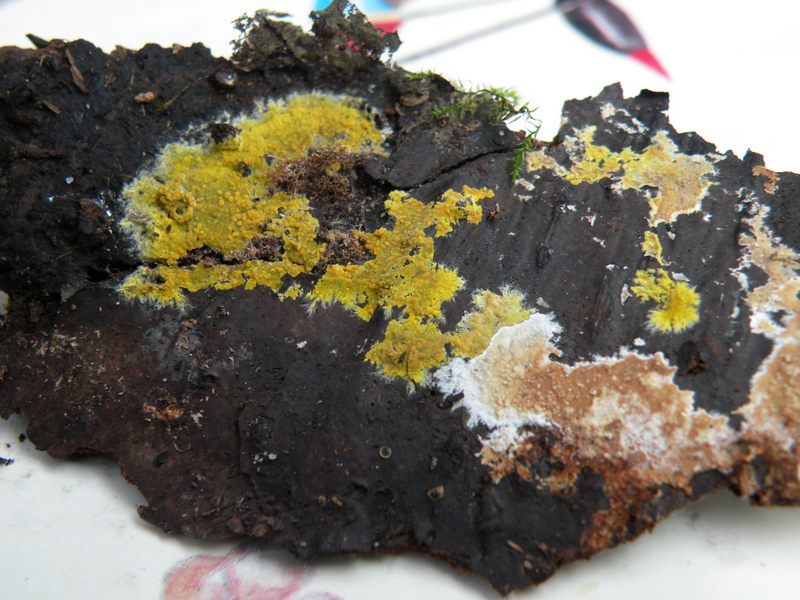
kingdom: Fungi
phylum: Basidiomycota
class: Agaricomycetes
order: Polyporales
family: Meruliaceae
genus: Phlebiodontia
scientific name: Phlebiodontia subochracea
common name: svovl-åresvamp
